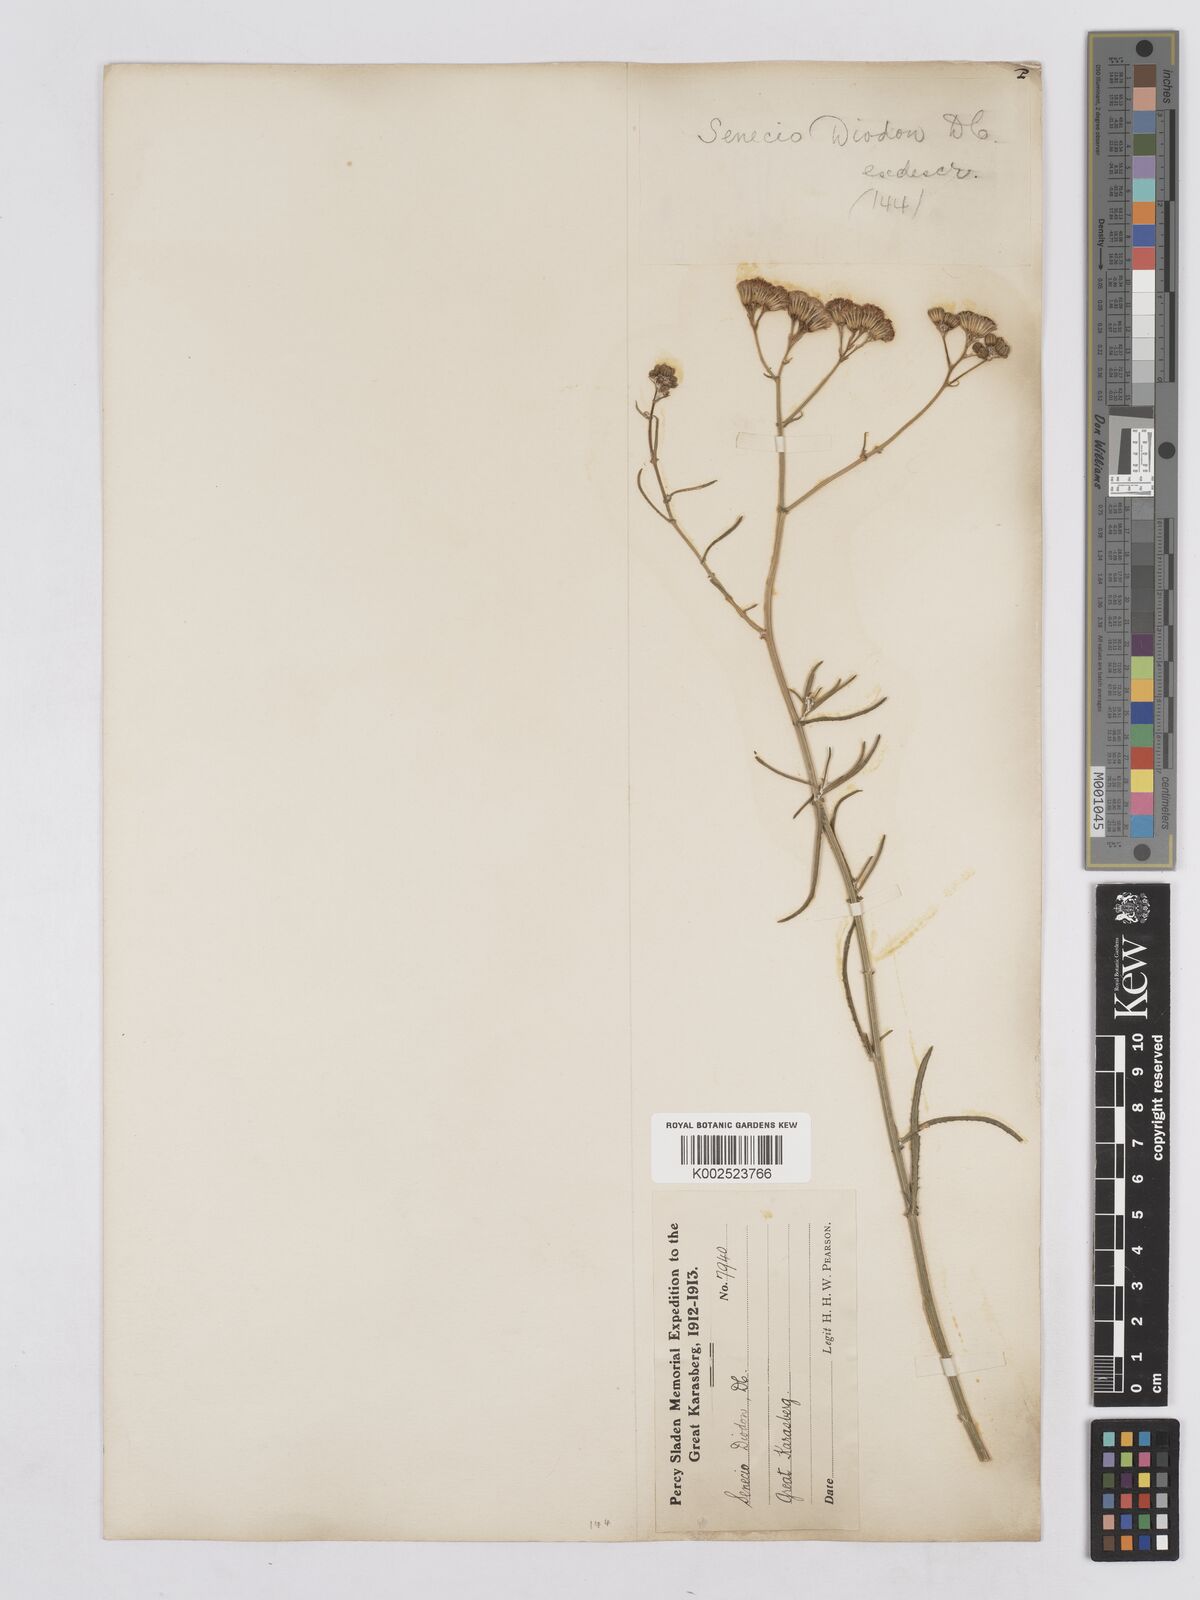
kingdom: Plantae
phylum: Tracheophyta
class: Magnoliopsida
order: Asterales
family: Asteraceae
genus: Senecio
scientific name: Senecio vimineus
